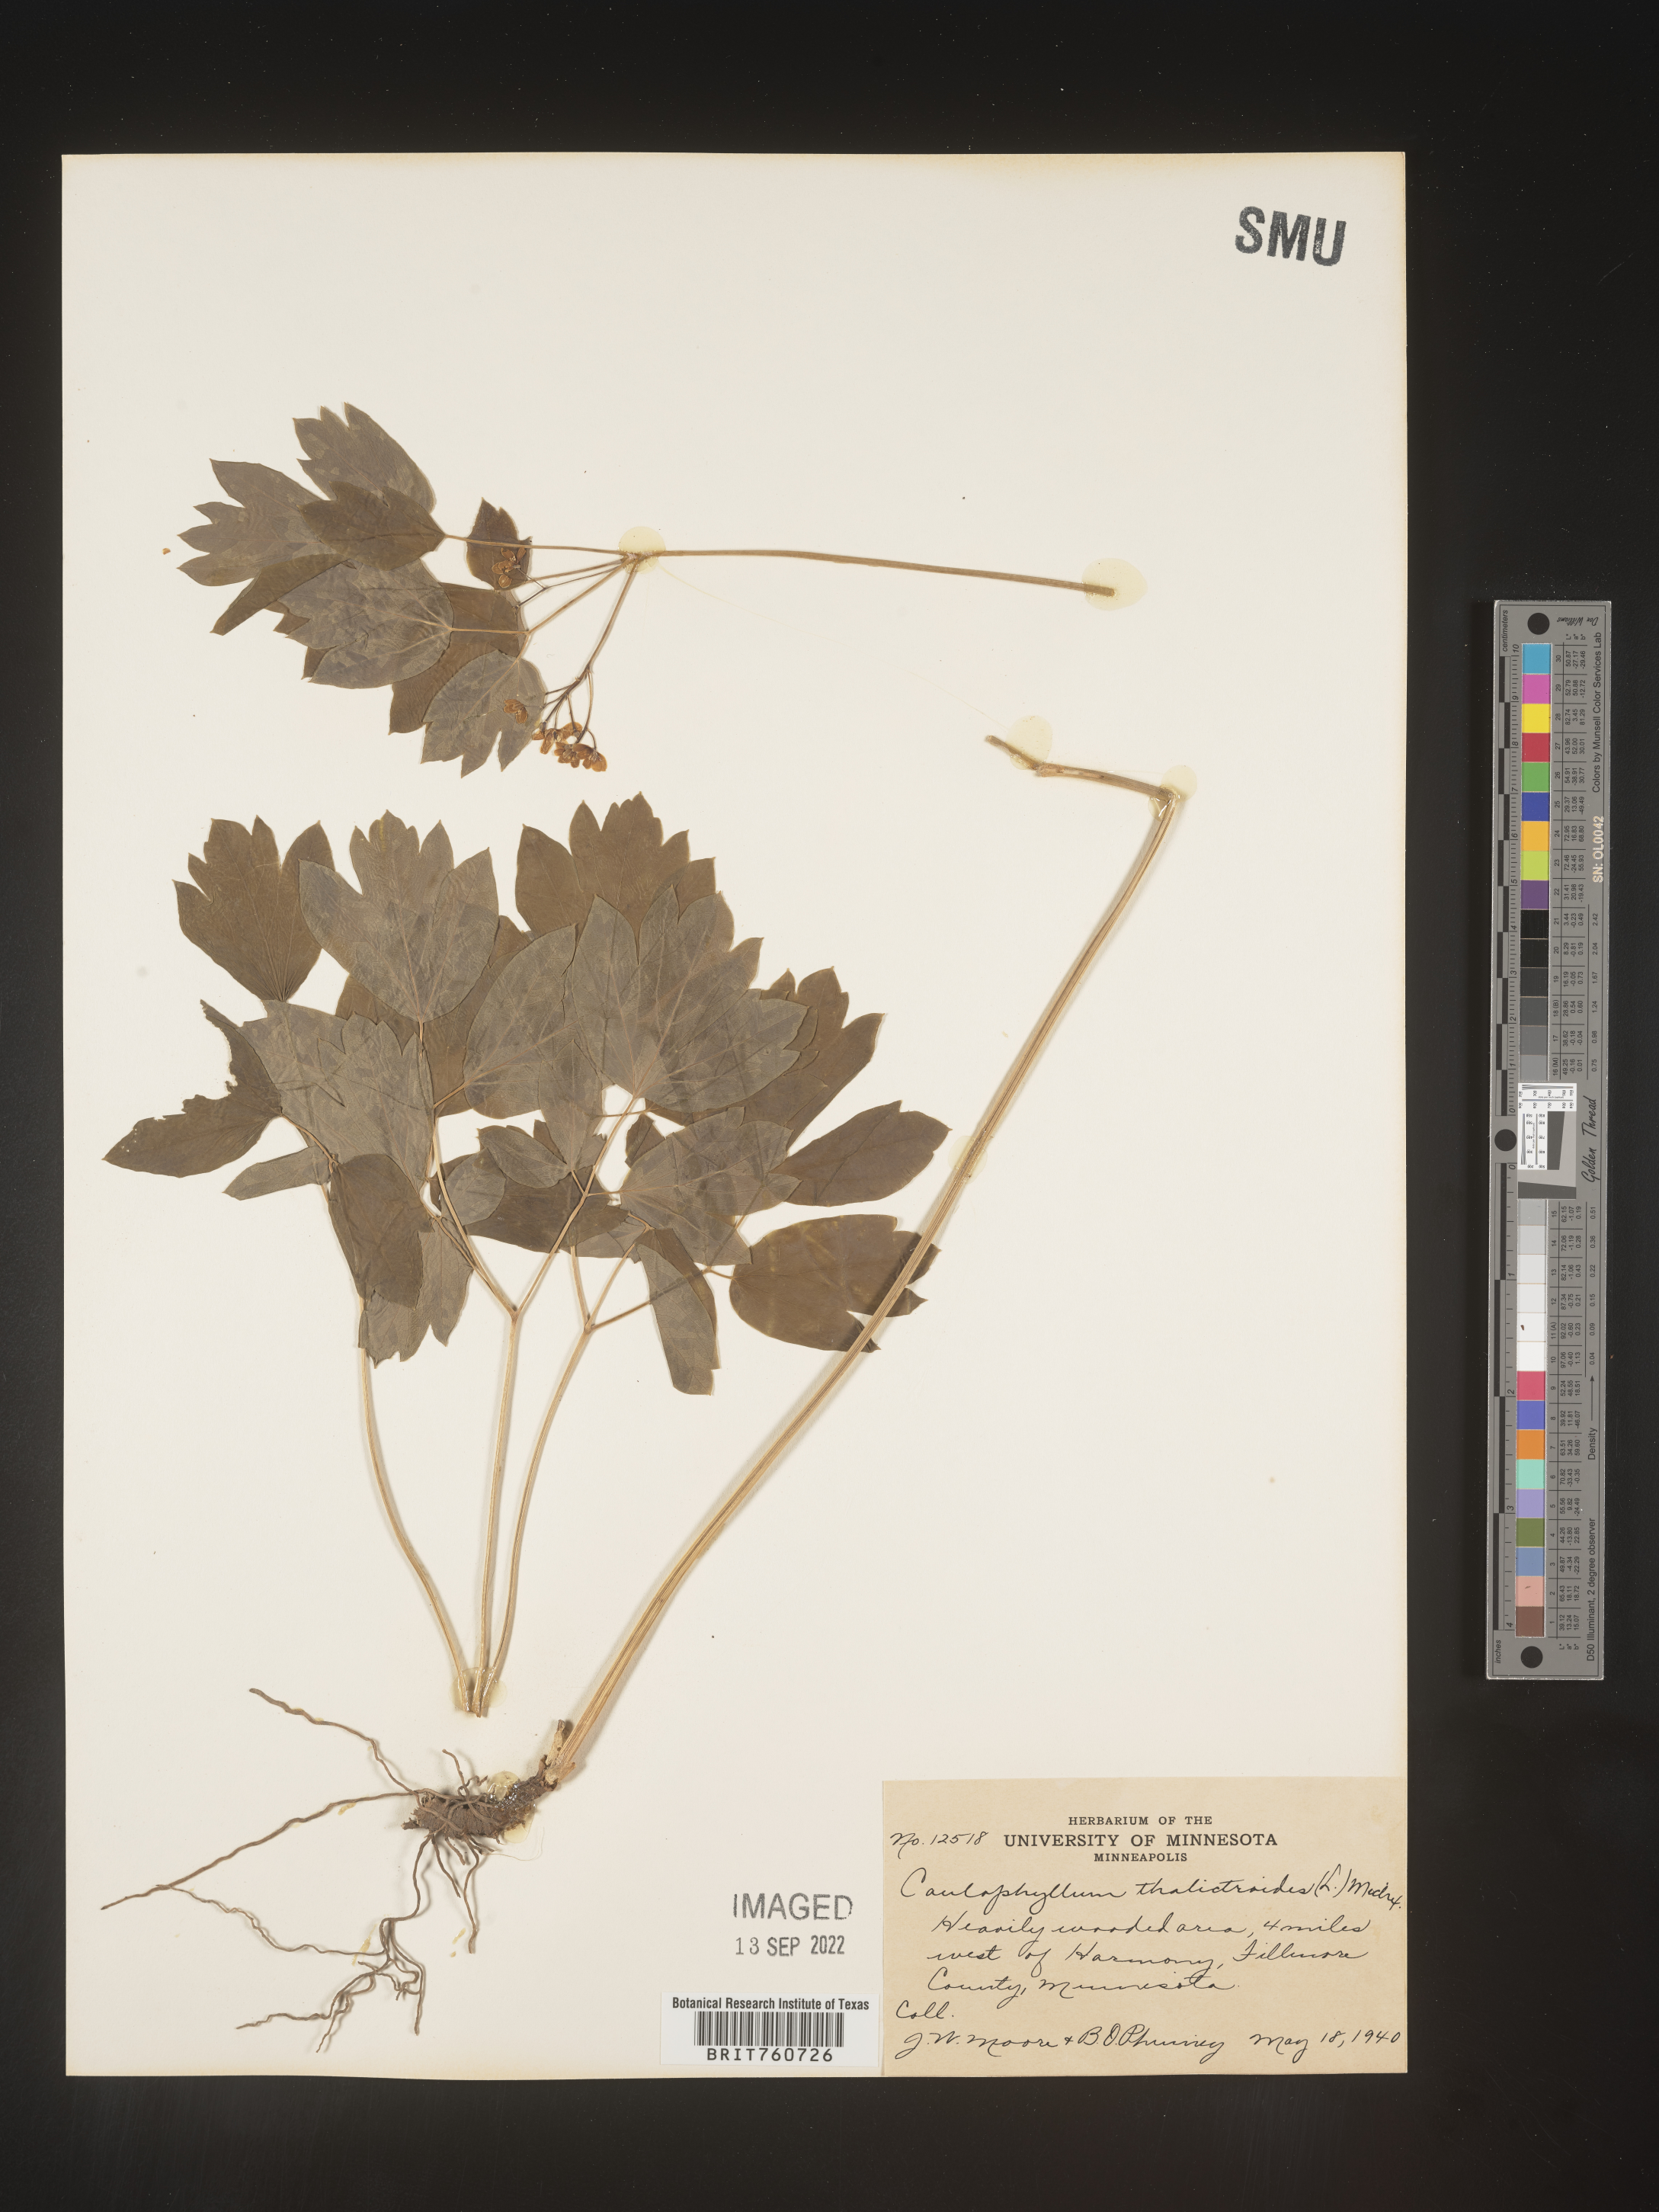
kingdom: Plantae
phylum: Tracheophyta
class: Magnoliopsida
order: Ranunculales
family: Berberidaceae
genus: Caulophyllum
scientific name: Caulophyllum thalictroides
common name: Blue cohosh
